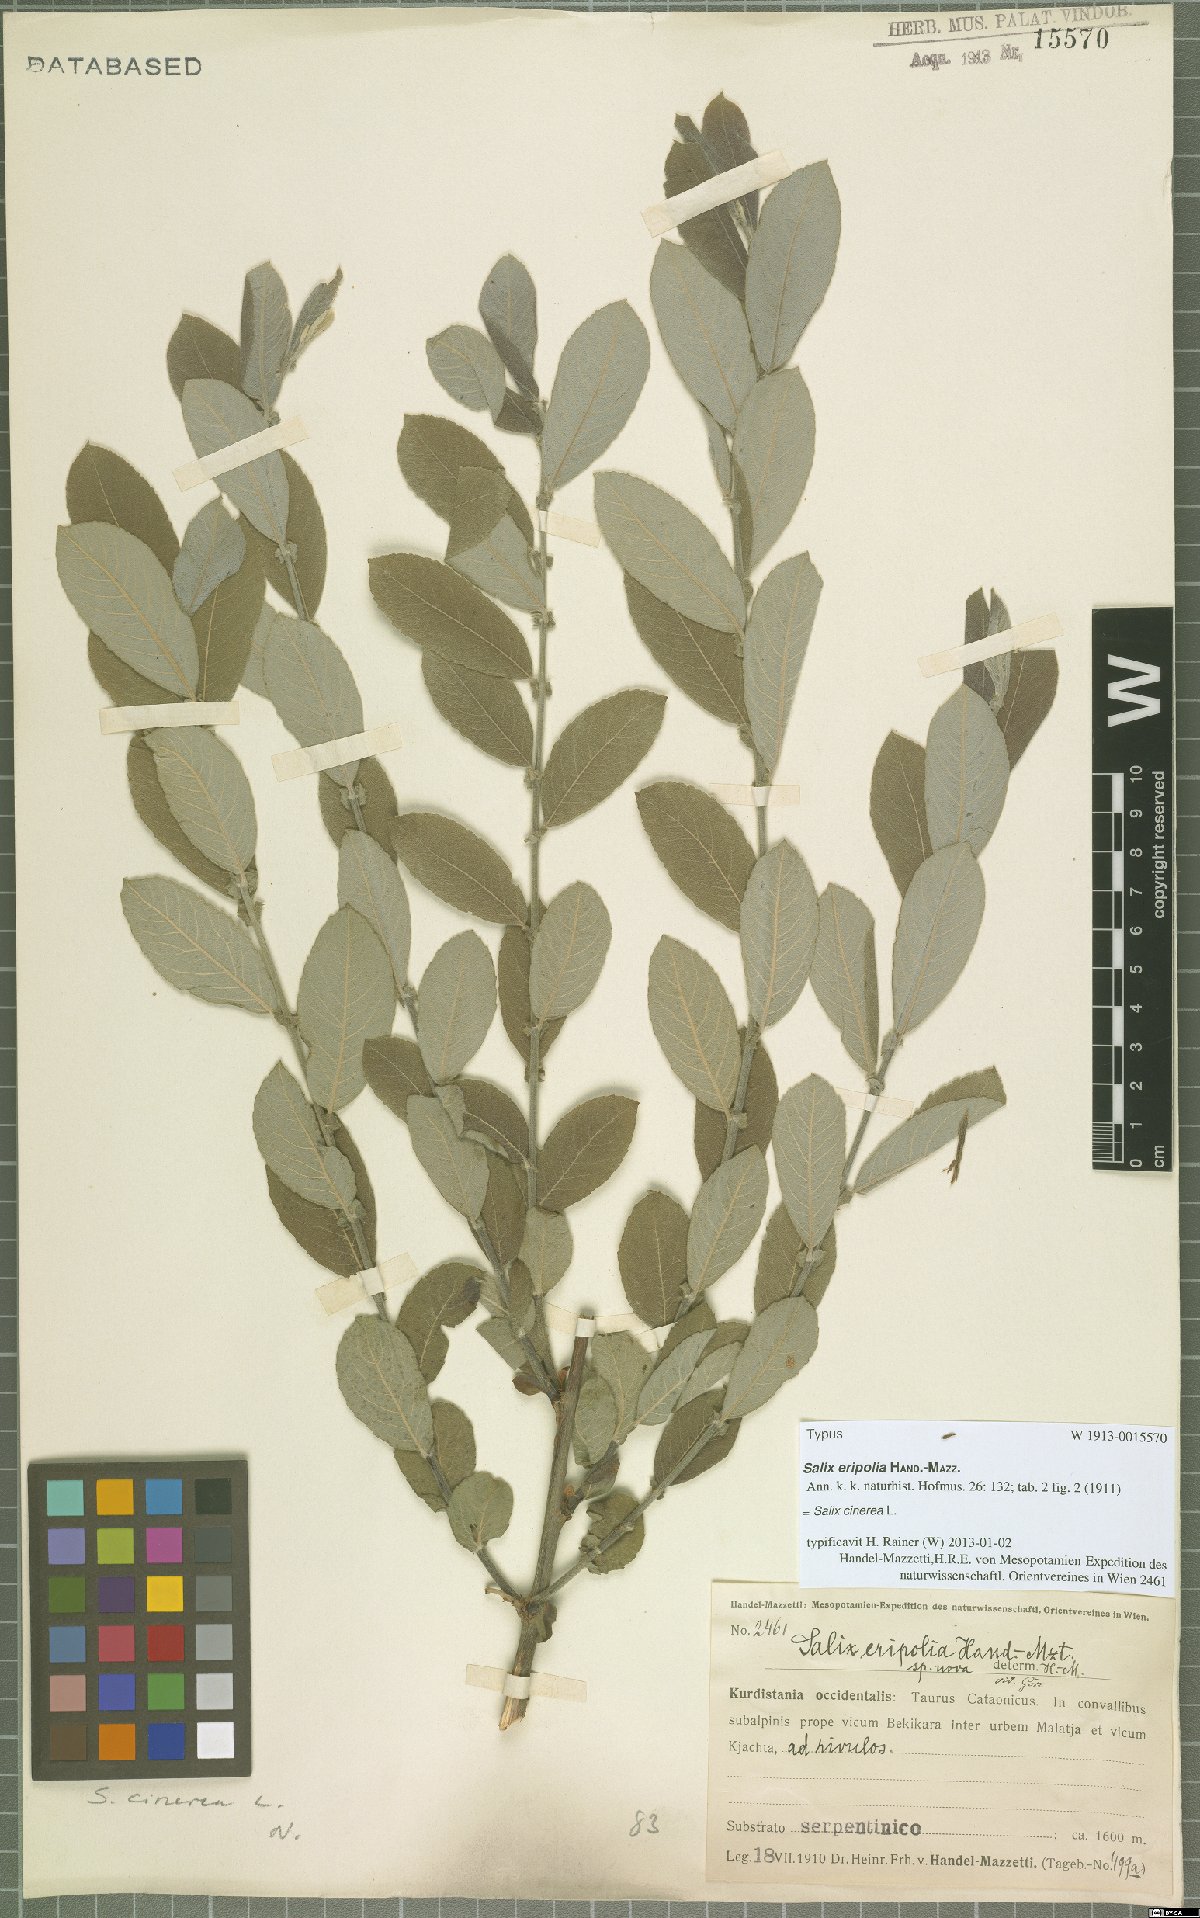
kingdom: Plantae
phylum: Tracheophyta
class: Magnoliopsida
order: Malpighiales
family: Salicaceae
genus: Salix
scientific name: Salix eripolia
